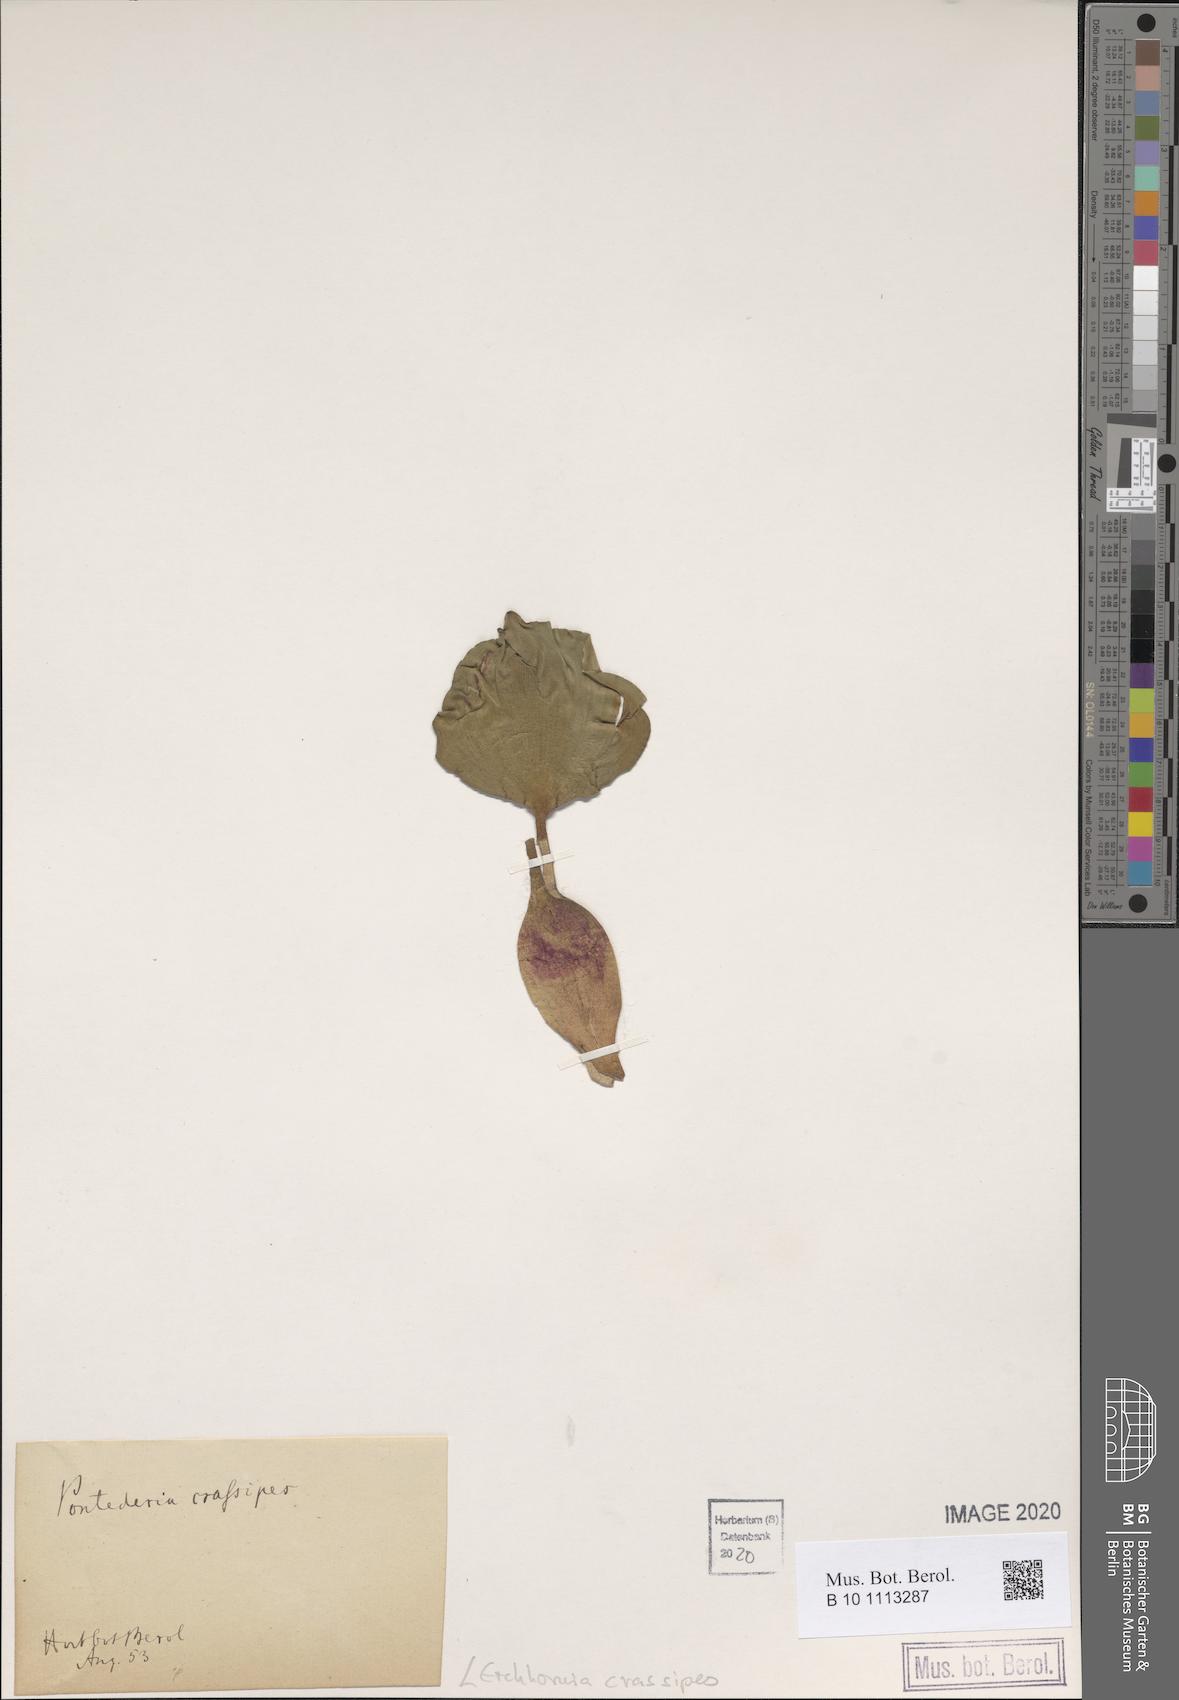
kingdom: Plantae
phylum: Tracheophyta
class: Liliopsida
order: Commelinales
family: Pontederiaceae
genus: Pontederia
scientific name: Pontederia crassipes
